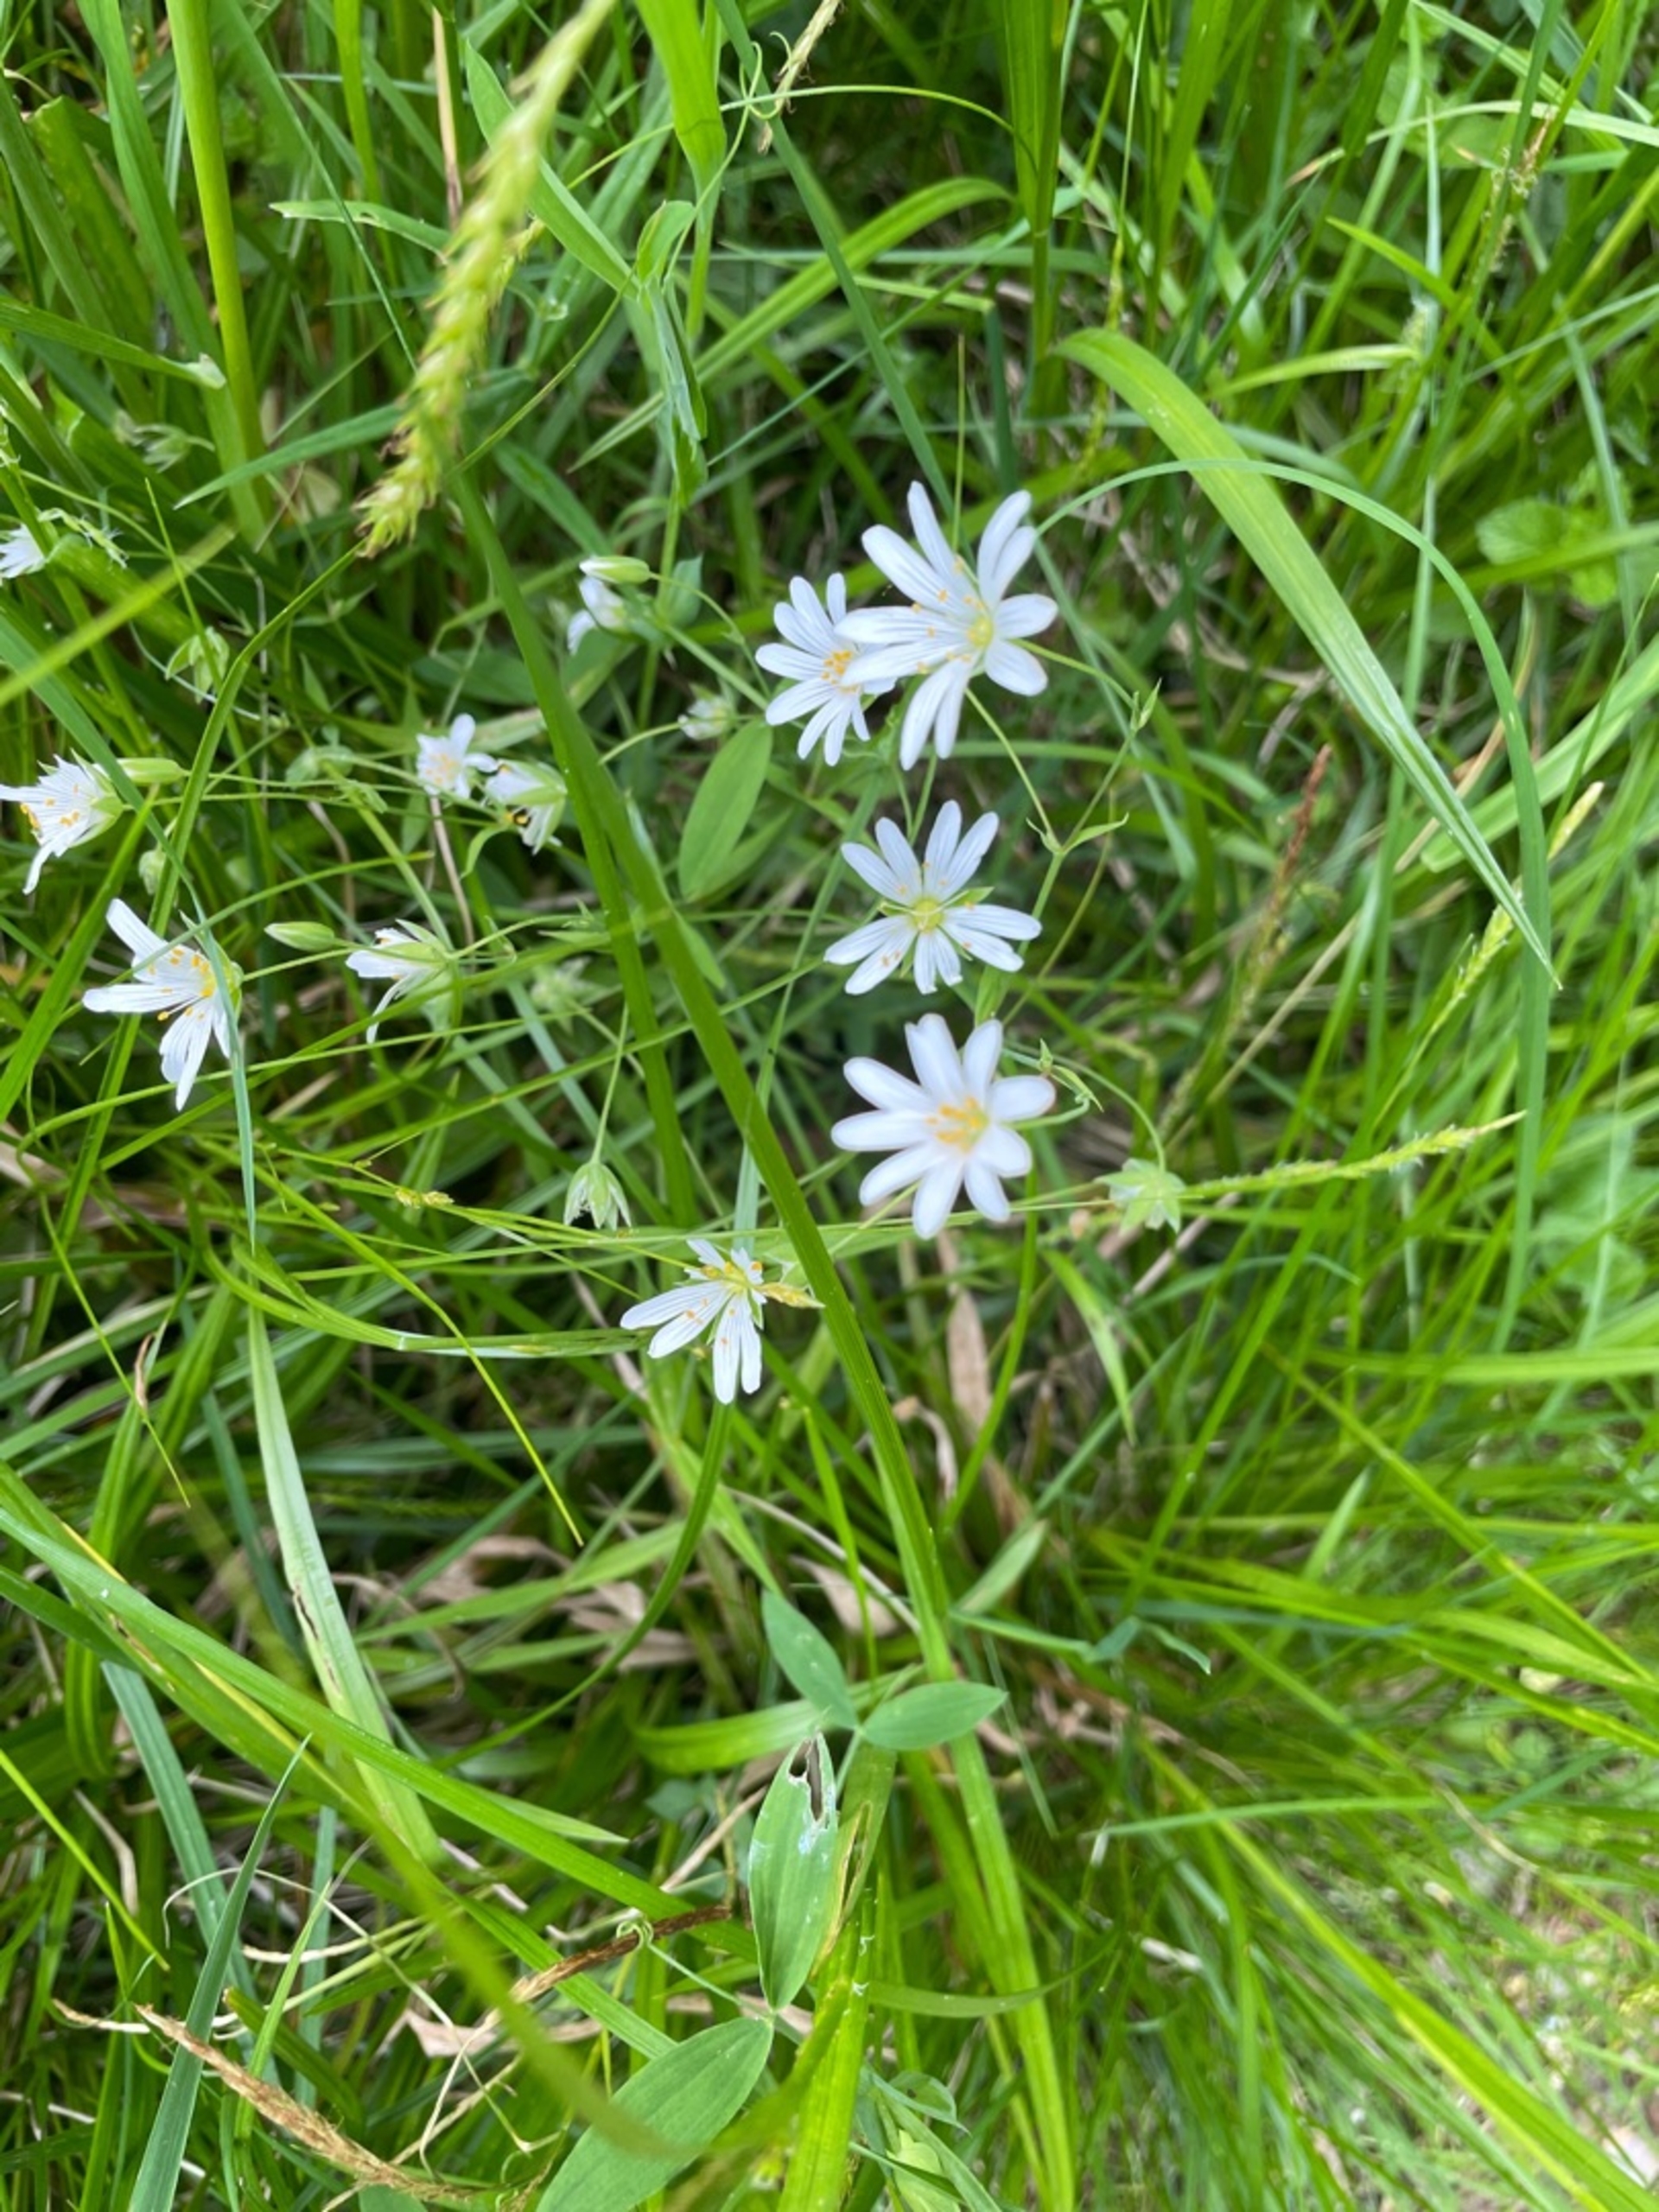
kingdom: Plantae
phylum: Tracheophyta
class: Magnoliopsida
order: Caryophyllales
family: Caryophyllaceae
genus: Rabelera
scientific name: Rabelera holostea
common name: Stor fladstjerne
